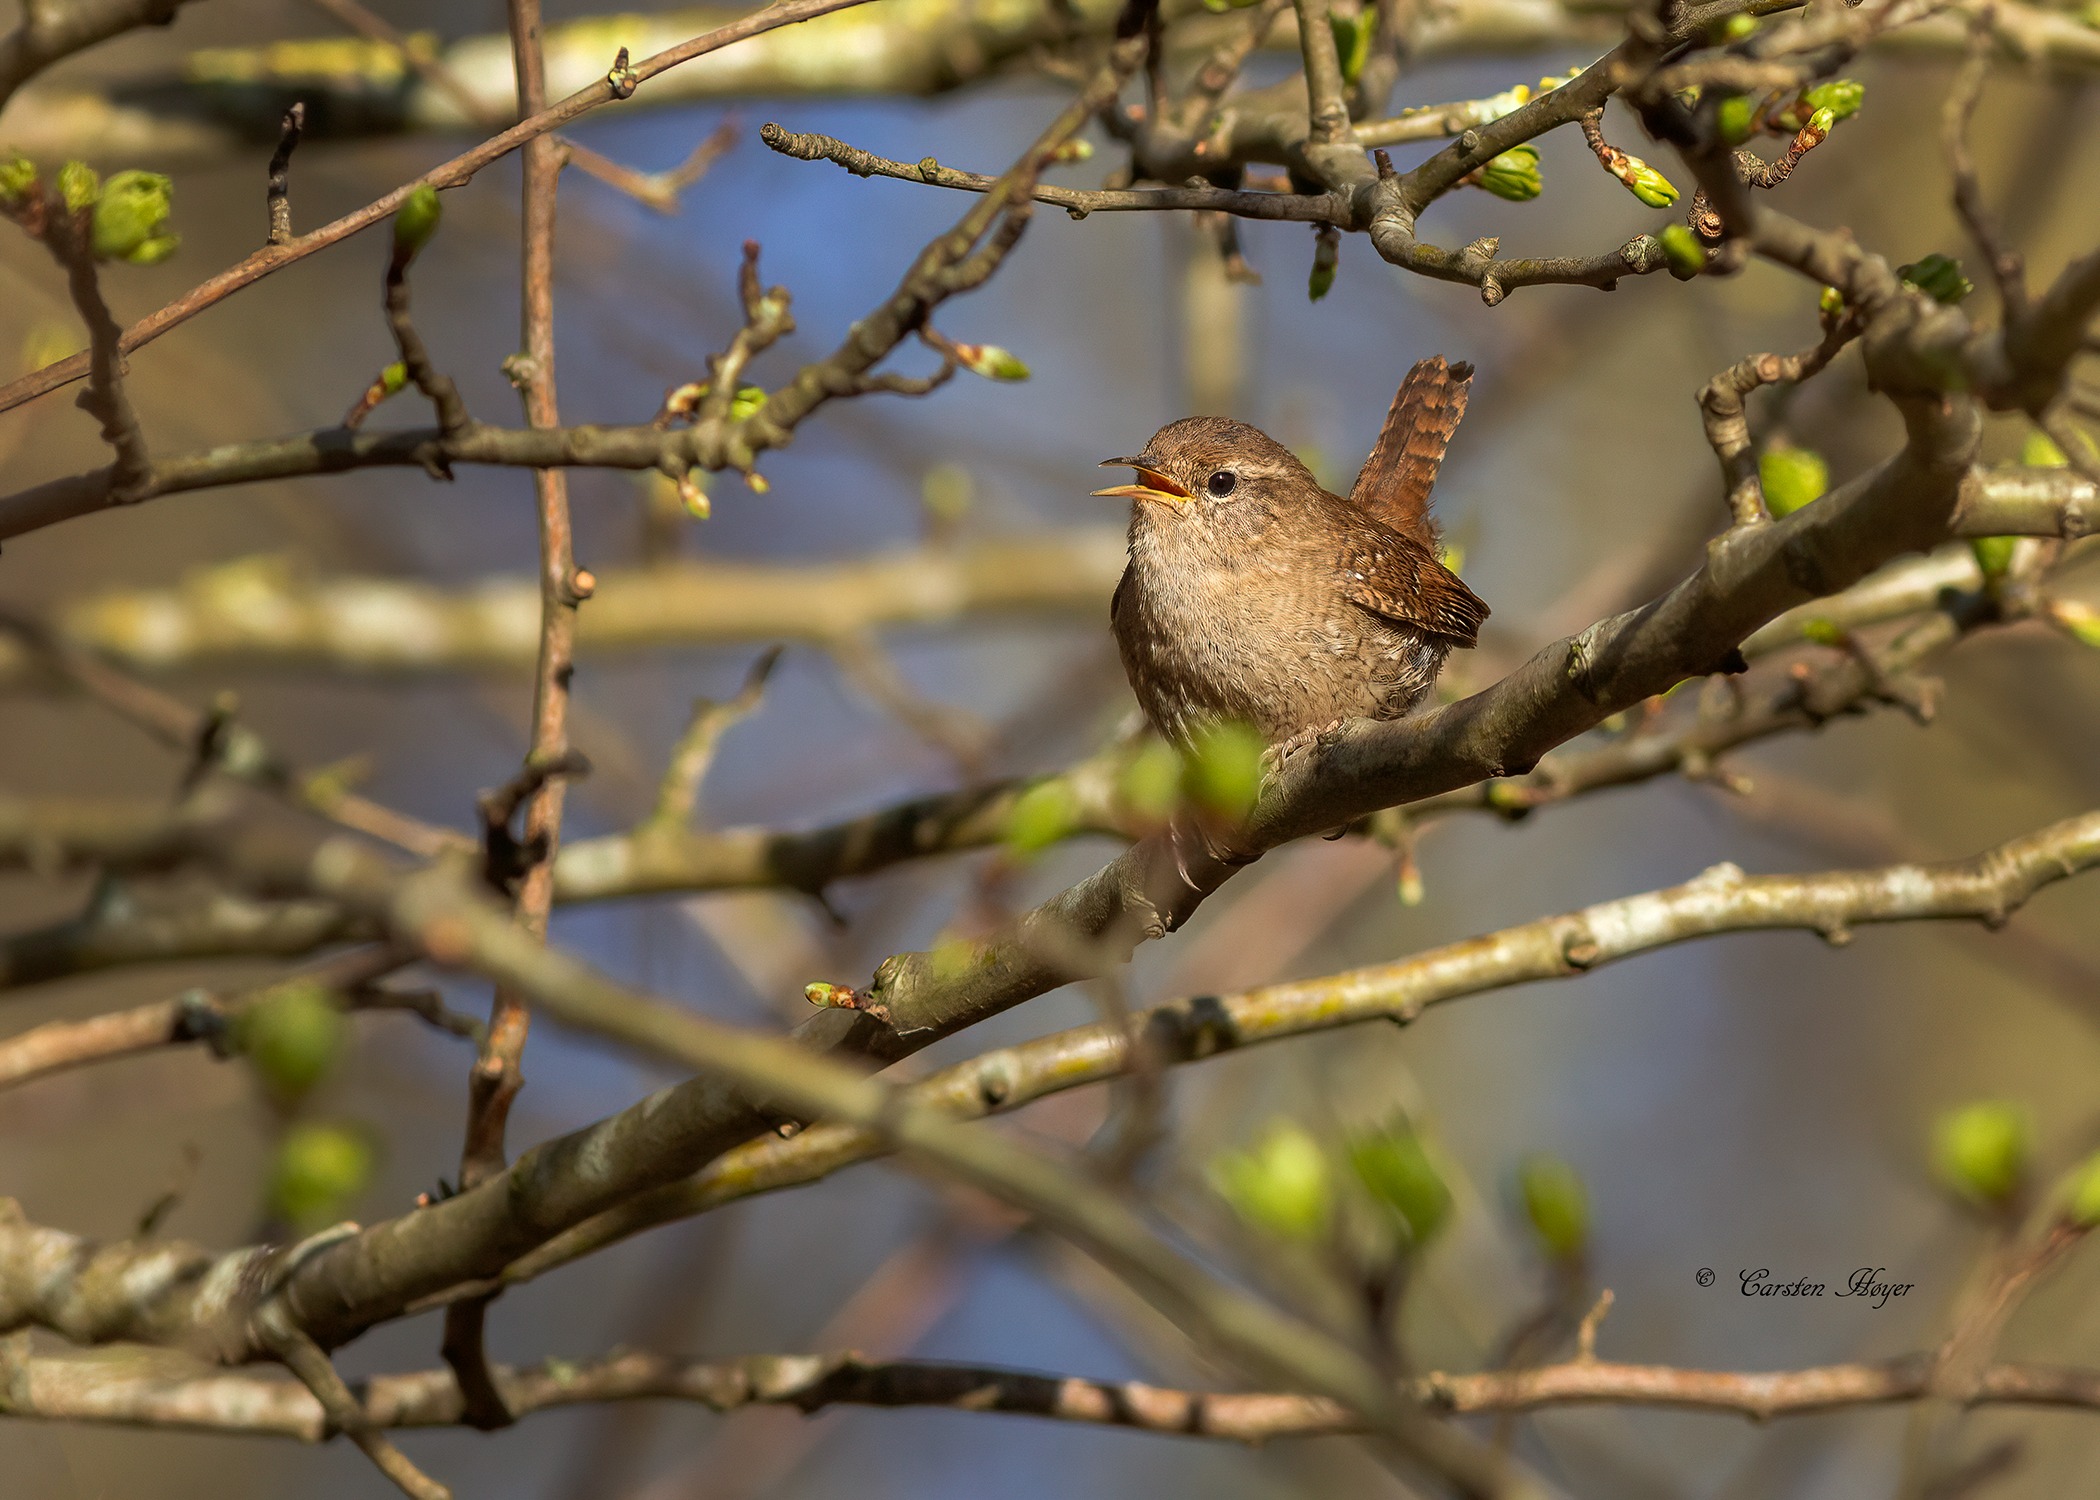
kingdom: Animalia
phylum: Chordata
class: Aves
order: Passeriformes
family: Troglodytidae
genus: Troglodytes
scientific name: Troglodytes troglodytes
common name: Gærdesmutte
